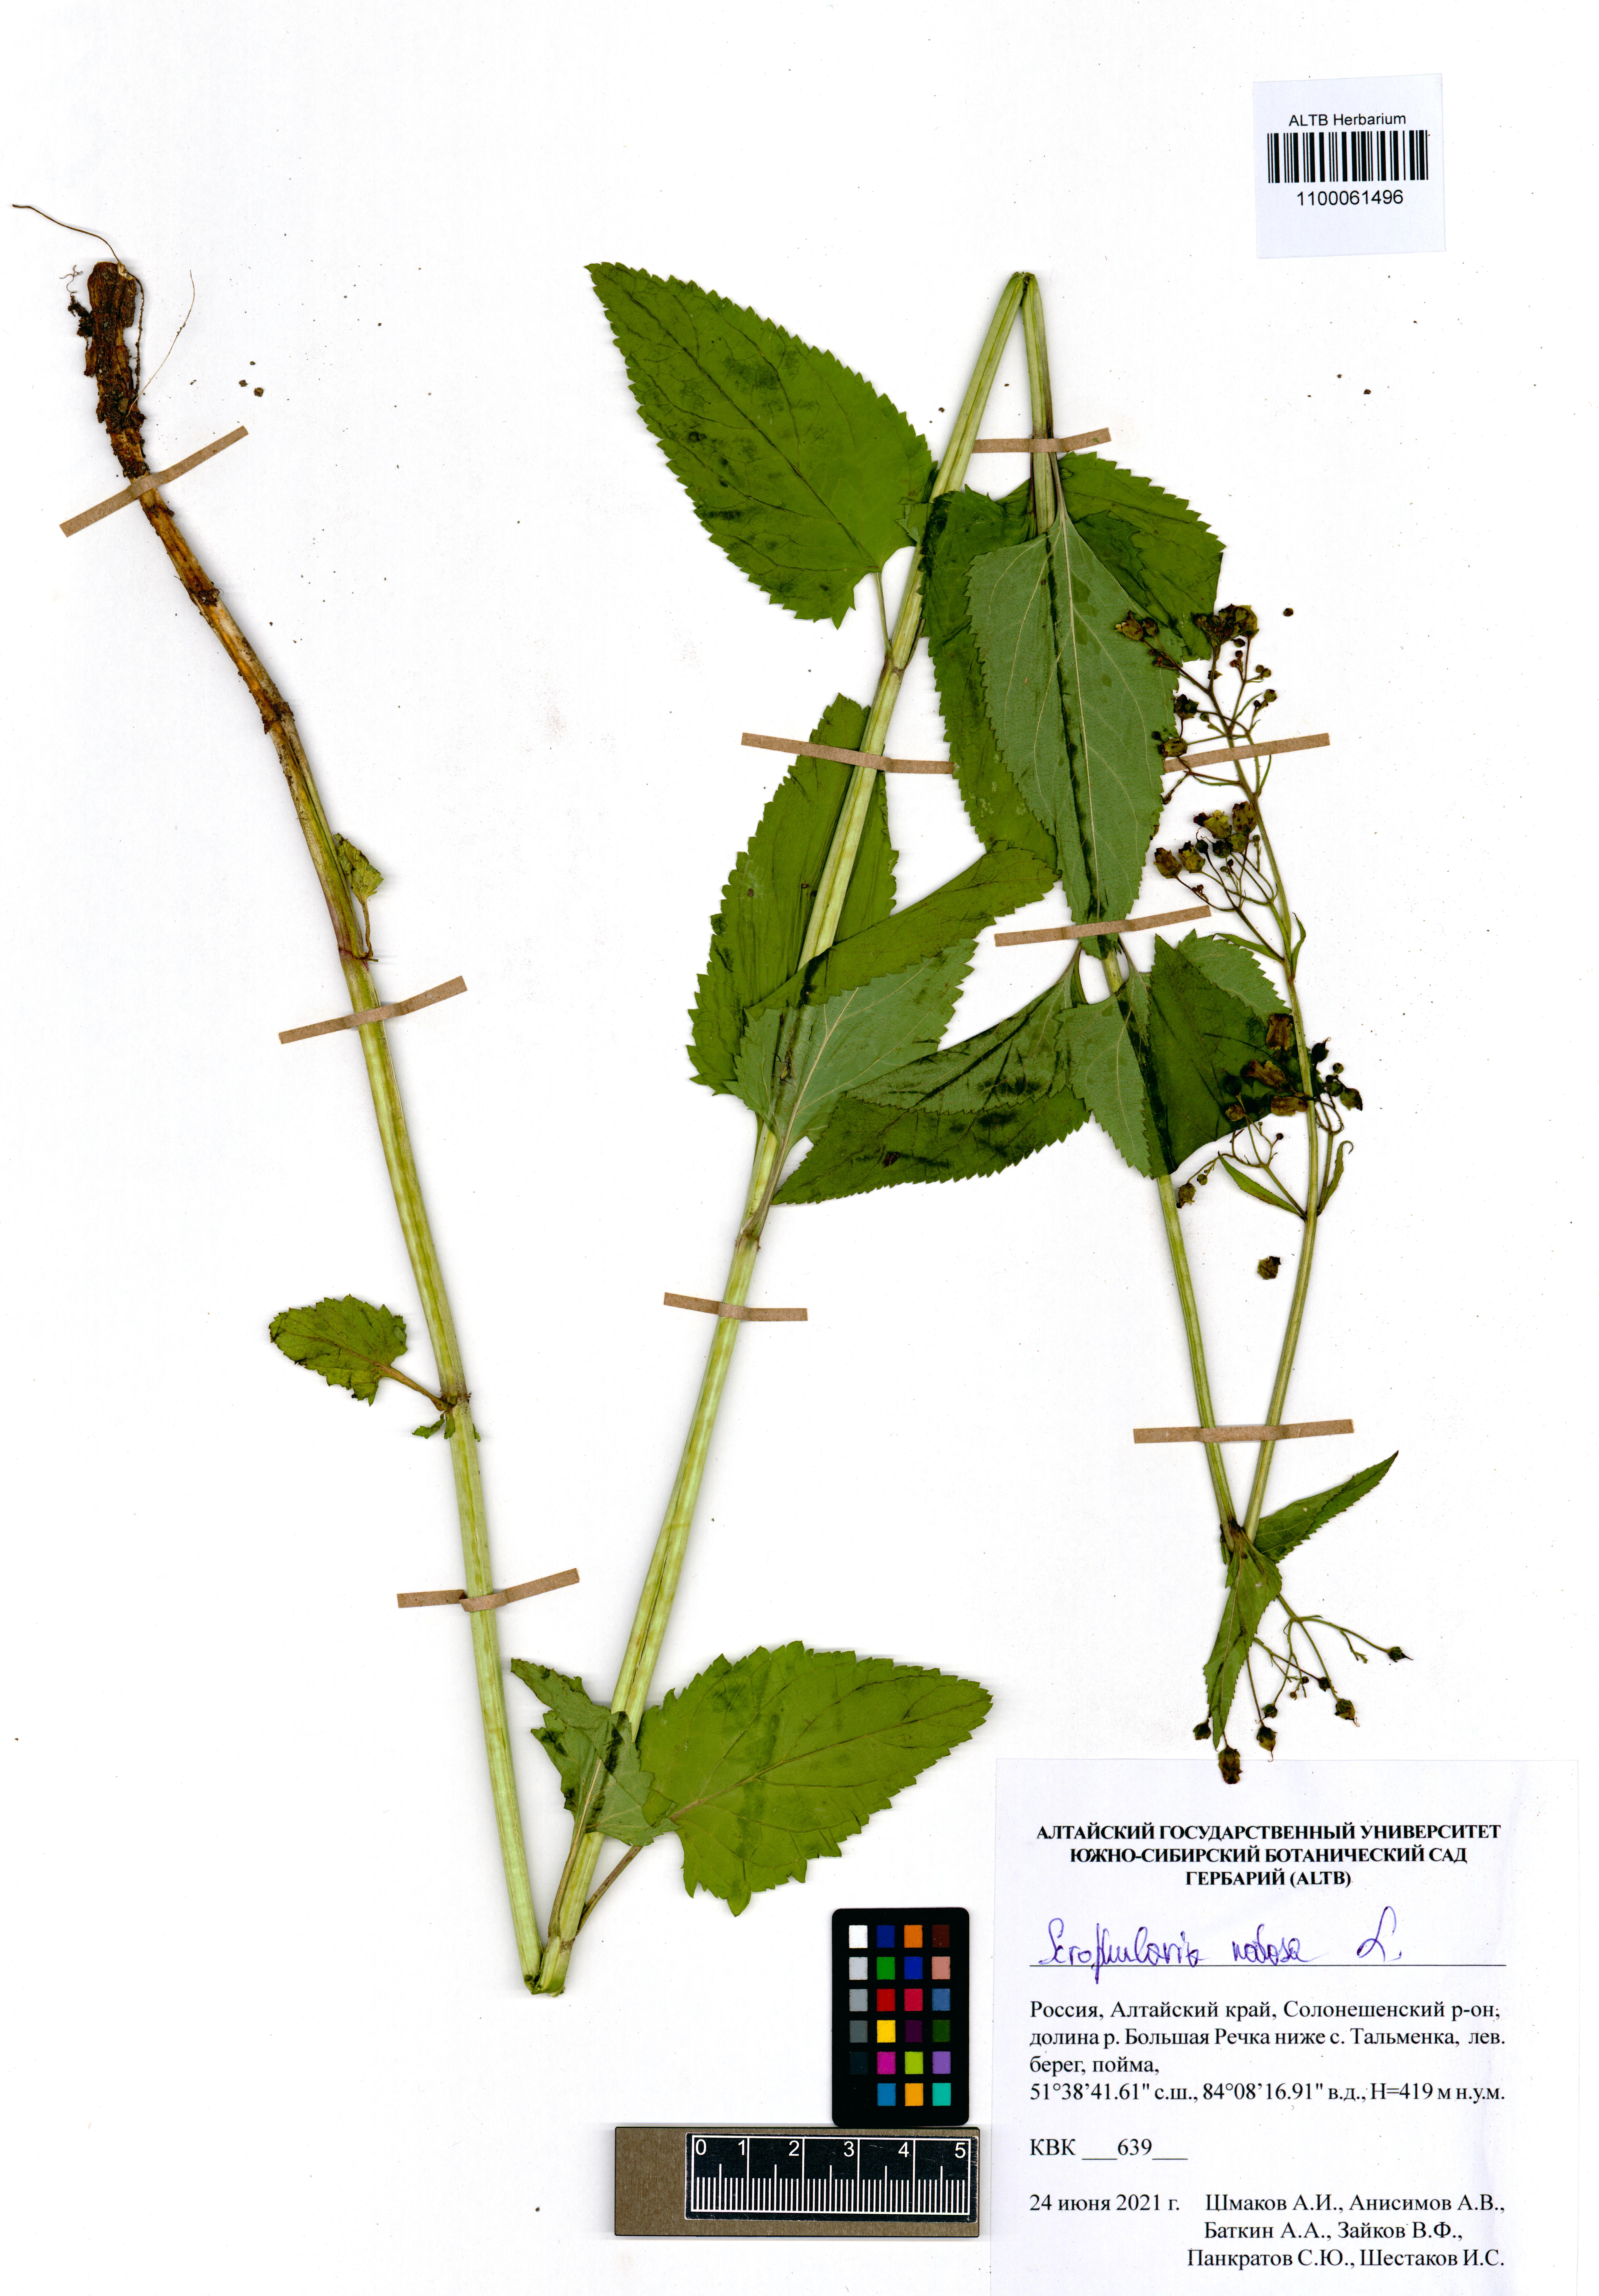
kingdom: Plantae
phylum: Tracheophyta
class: Magnoliopsida
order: Lamiales
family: Scrophulariaceae
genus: Scrophularia
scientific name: Scrophularia nodosa
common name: Common figwort
